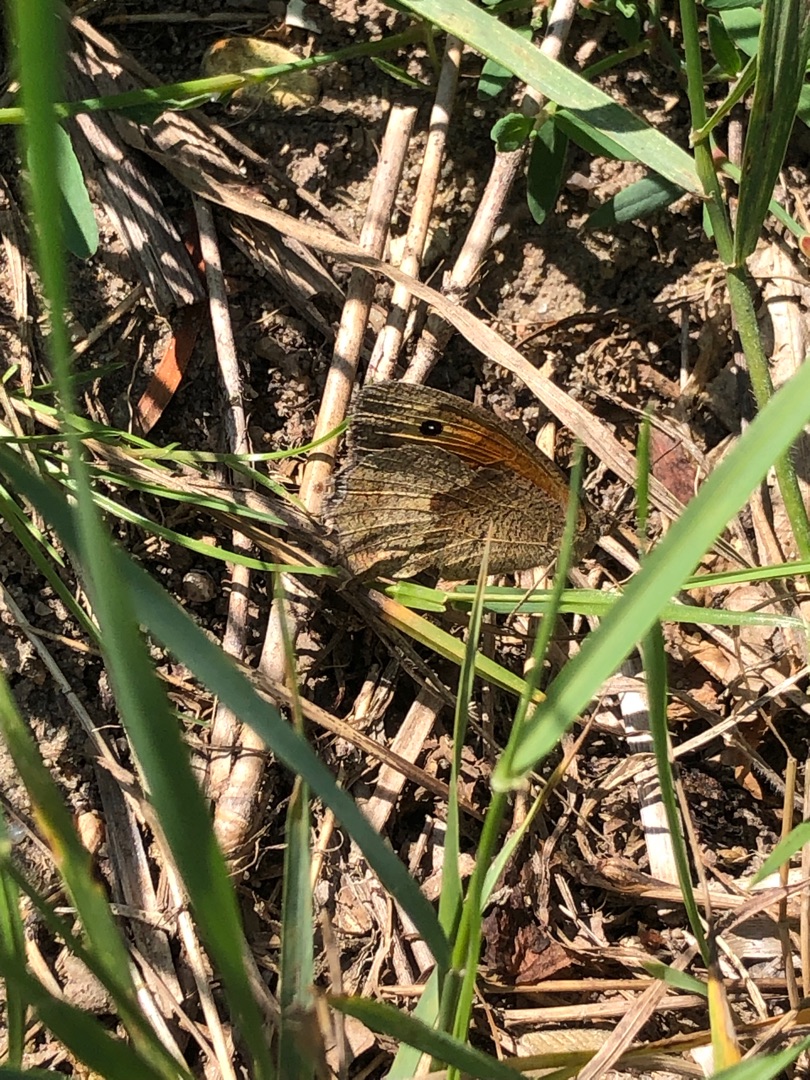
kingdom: Animalia
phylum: Arthropoda
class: Insecta
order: Lepidoptera
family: Nymphalidae
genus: Maniola
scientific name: Maniola jurtina
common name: Græsrandøje
